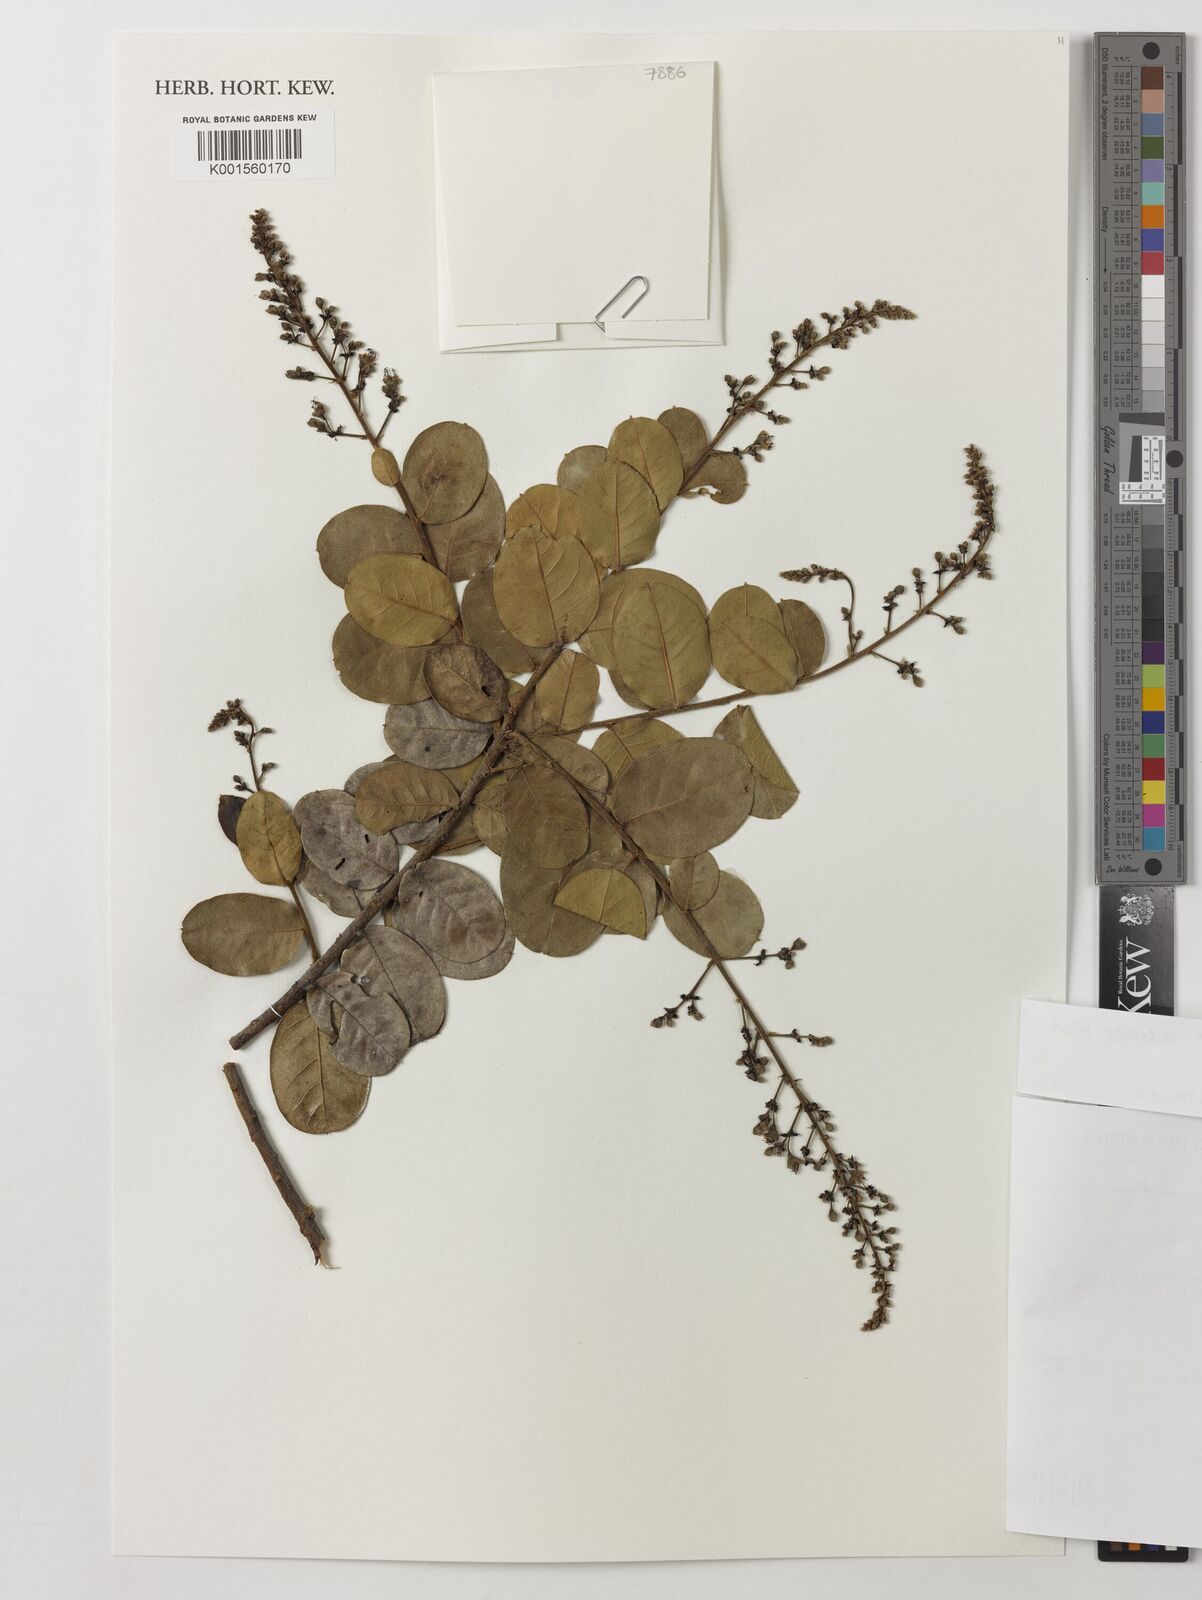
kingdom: Plantae
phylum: Tracheophyta
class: Magnoliopsida
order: Malpighiales
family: Chrysobalanaceae
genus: Hirtella
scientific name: Hirtella ciliata
